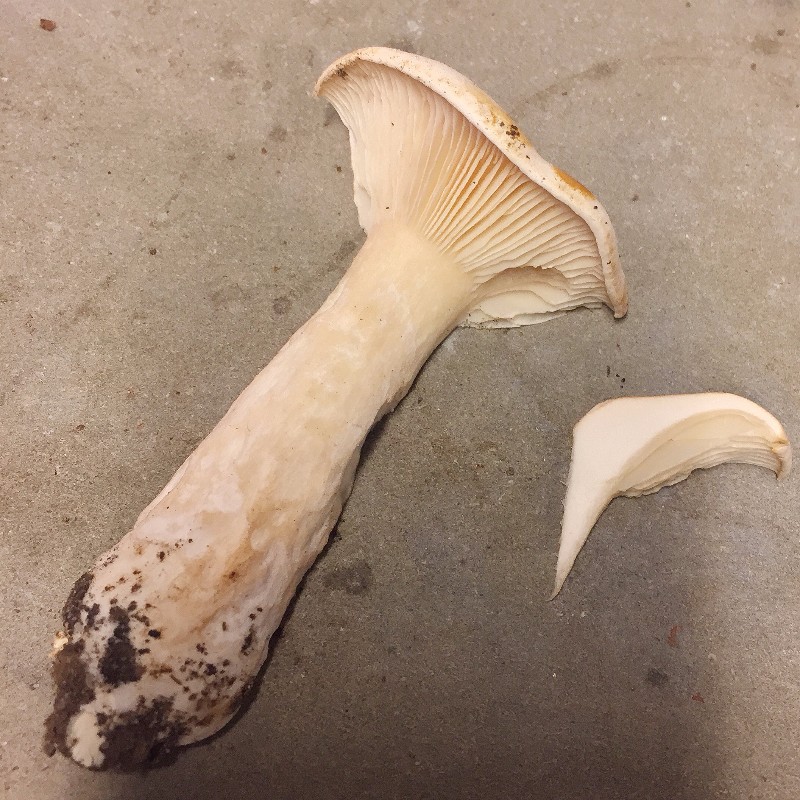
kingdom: Fungi
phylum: Basidiomycota
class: Agaricomycetes
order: Agaricales
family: Tricholomataceae
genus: Clitocybe
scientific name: Clitocybe nebularis
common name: tåge-tragthat
